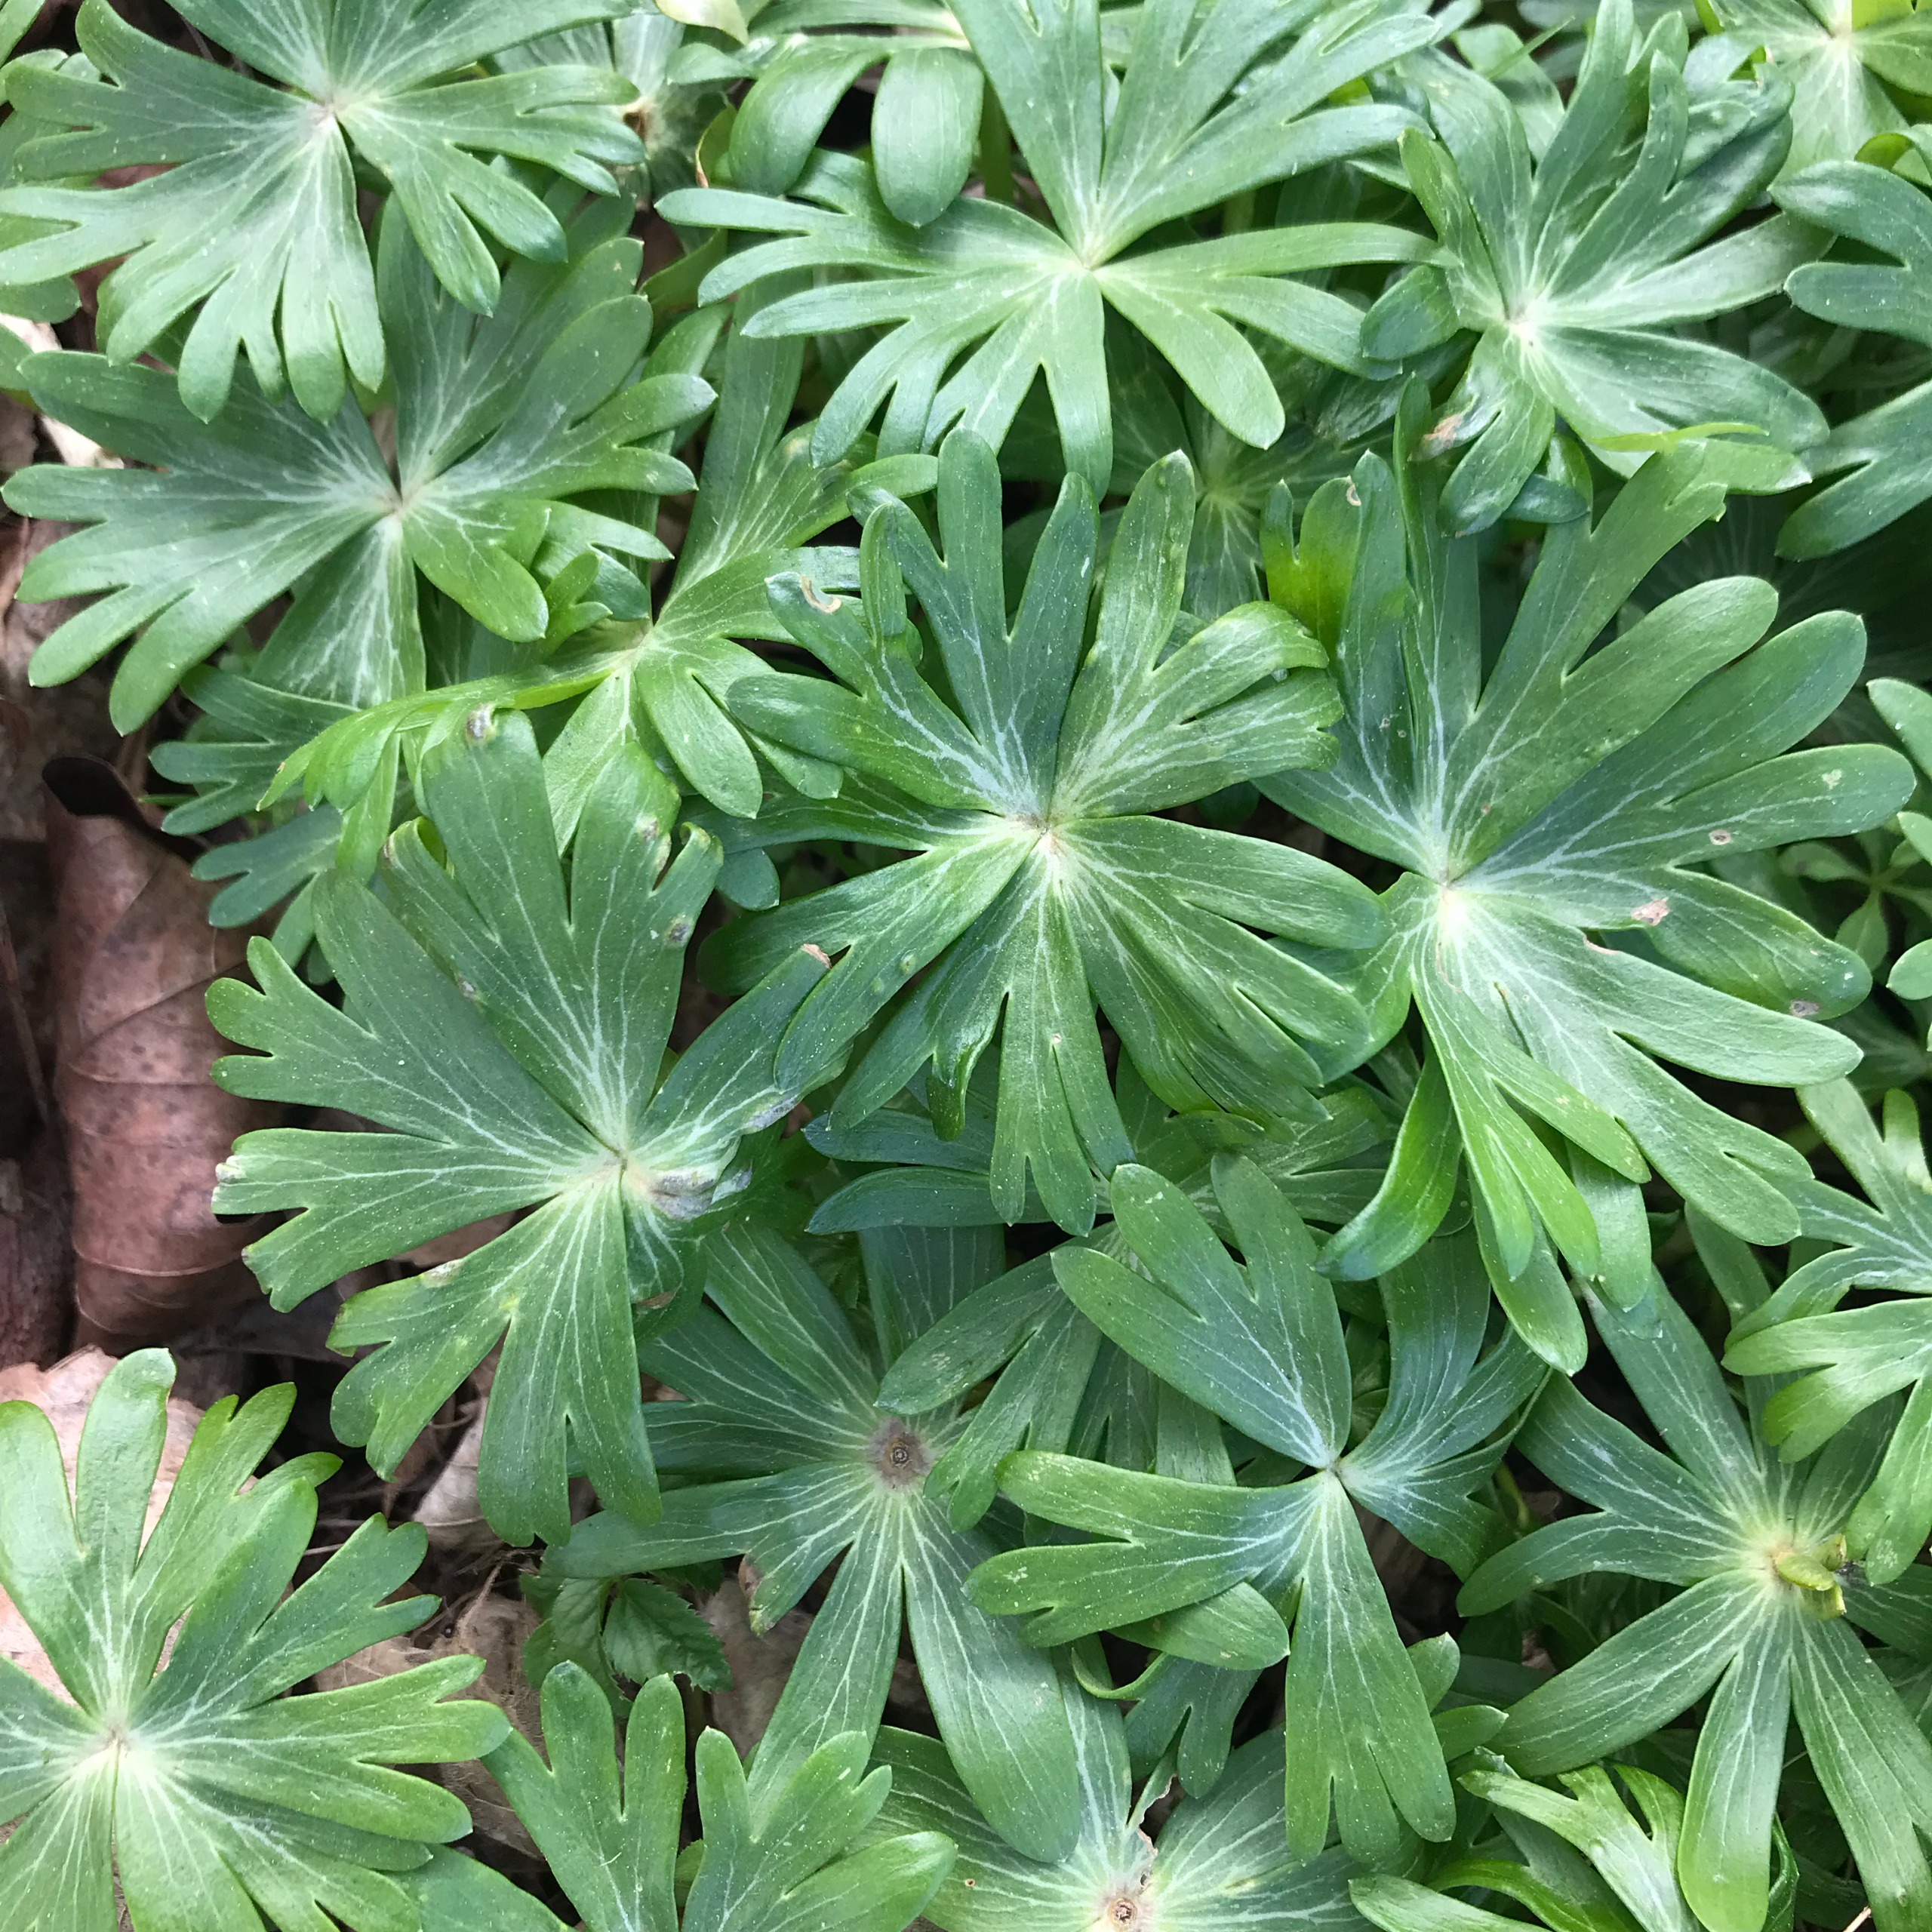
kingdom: Plantae
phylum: Tracheophyta
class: Magnoliopsida
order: Ranunculales
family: Ranunculaceae
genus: Eranthis
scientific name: Eranthis hyemalis
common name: Erantis
